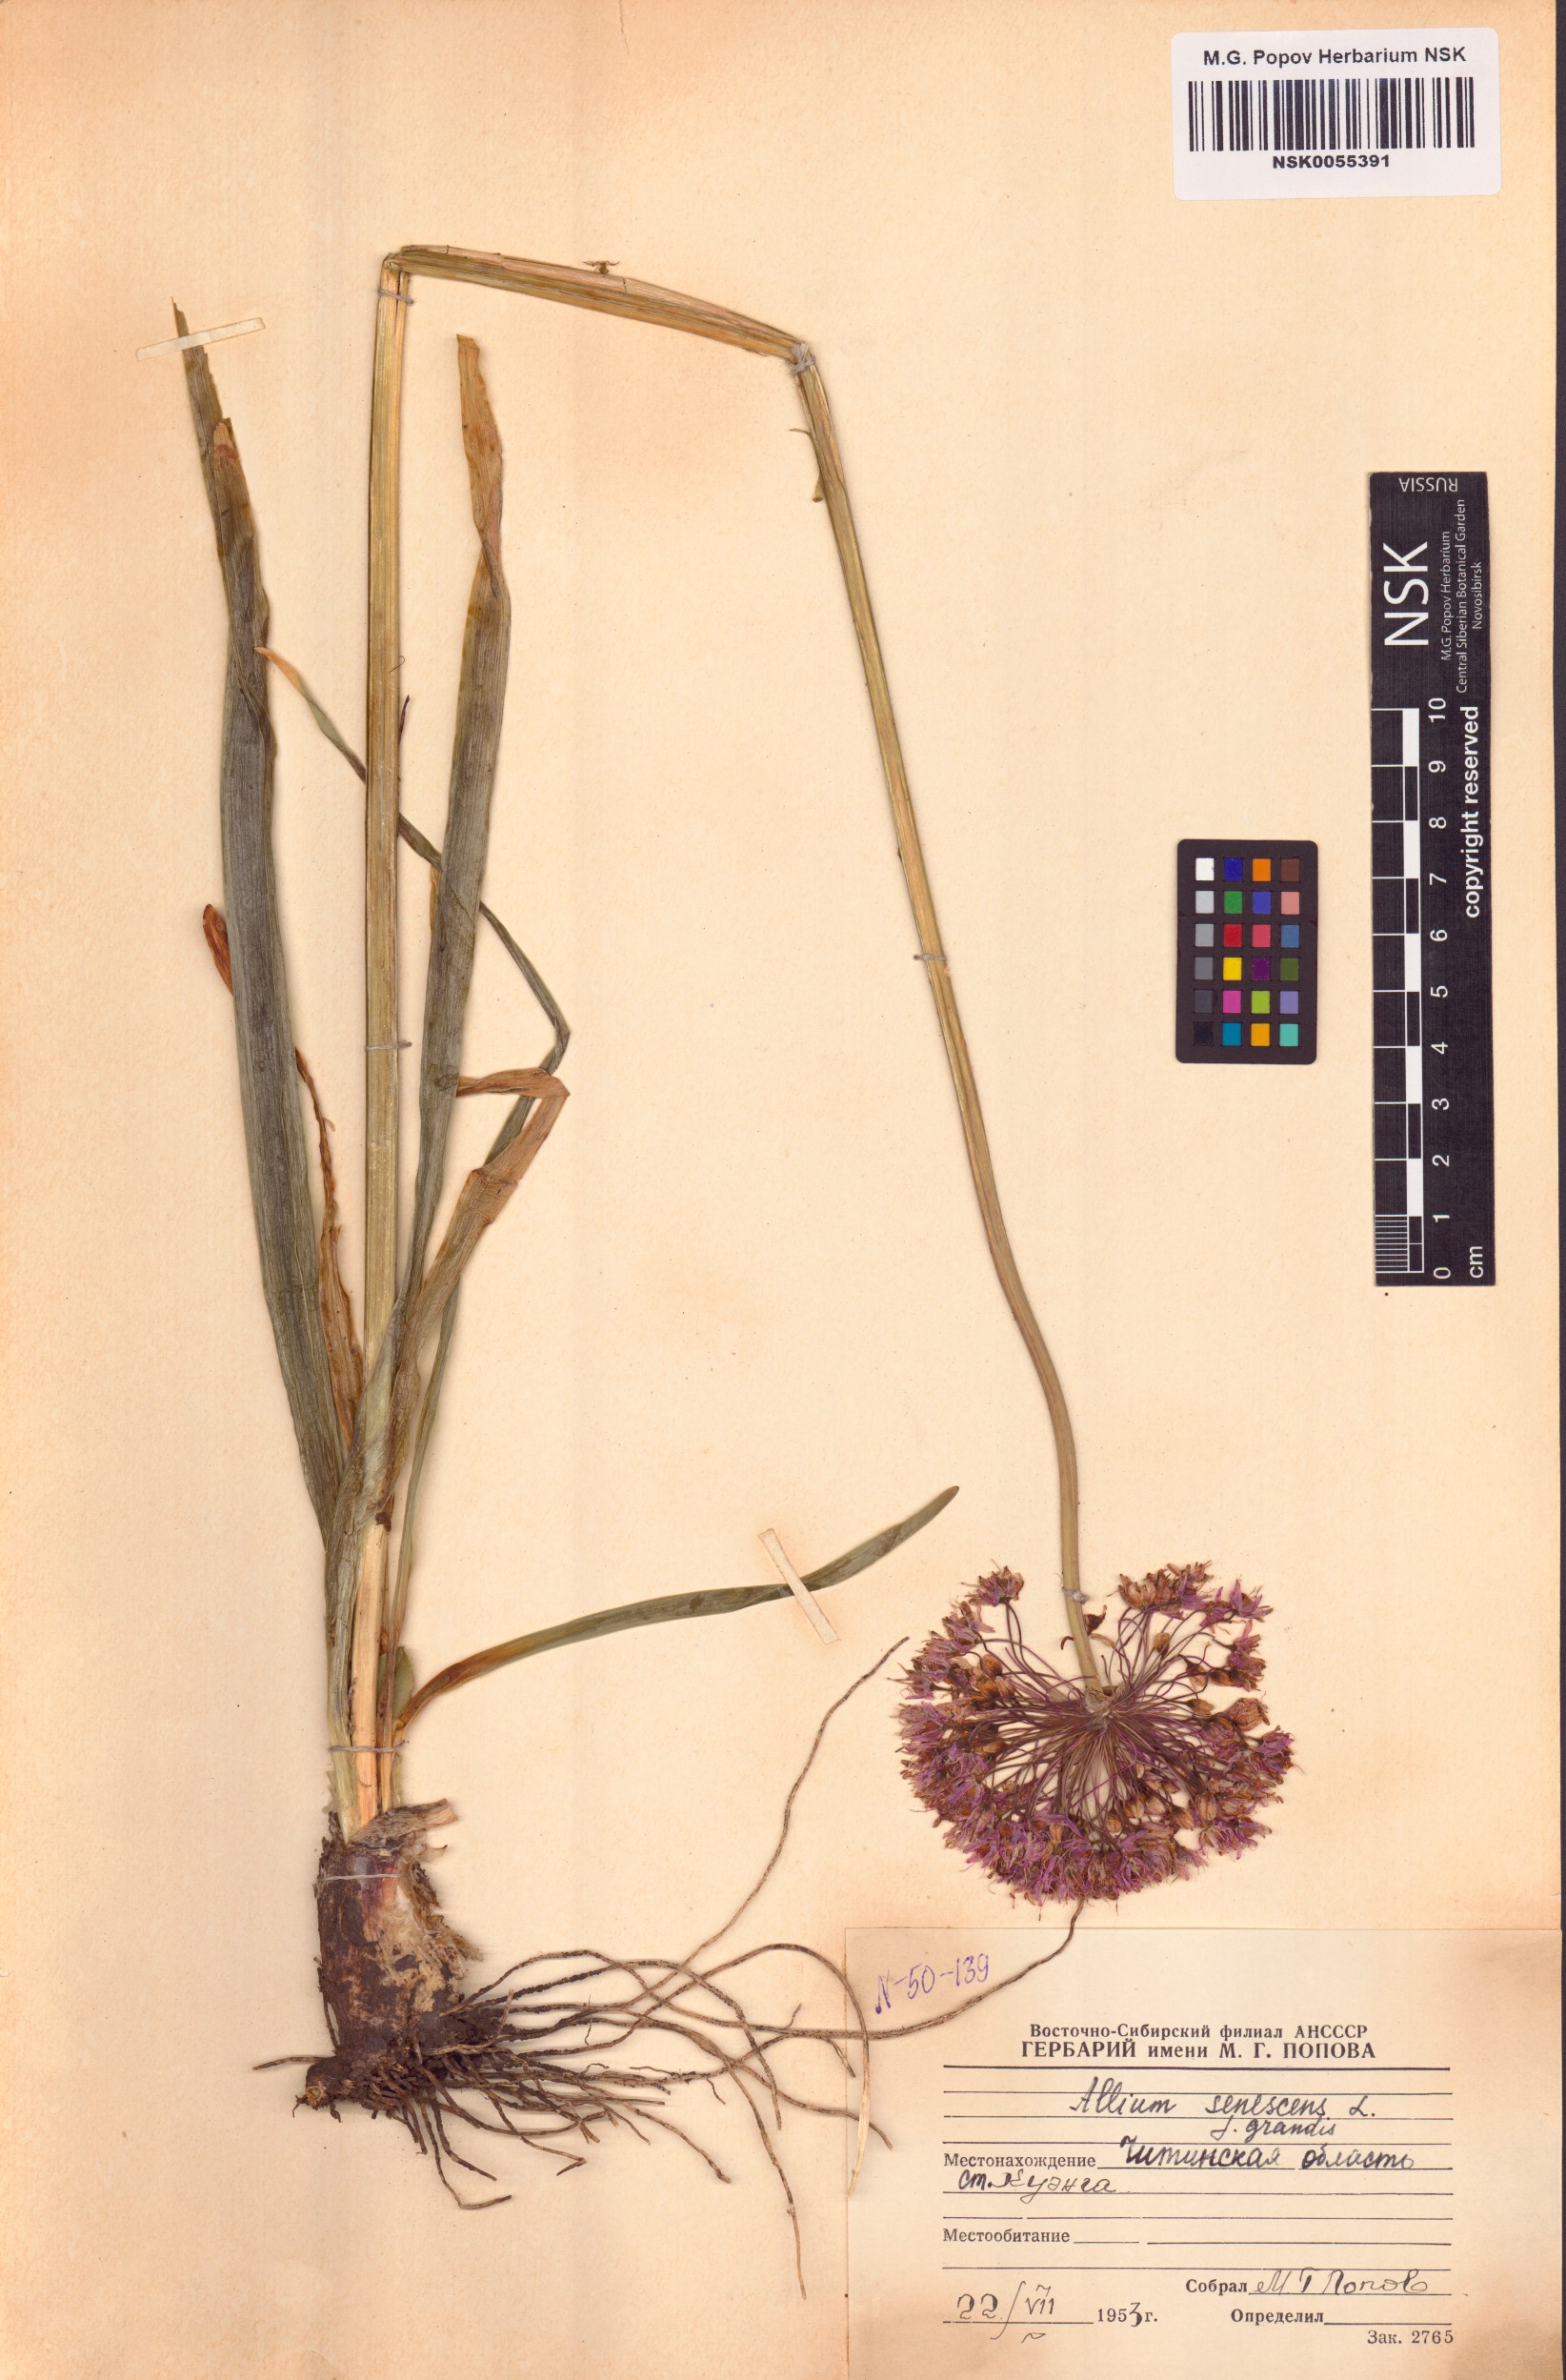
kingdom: Plantae
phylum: Tracheophyta
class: Liliopsida
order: Asparagales
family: Amaryllidaceae
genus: Allium
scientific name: Allium senescens
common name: German garlic
